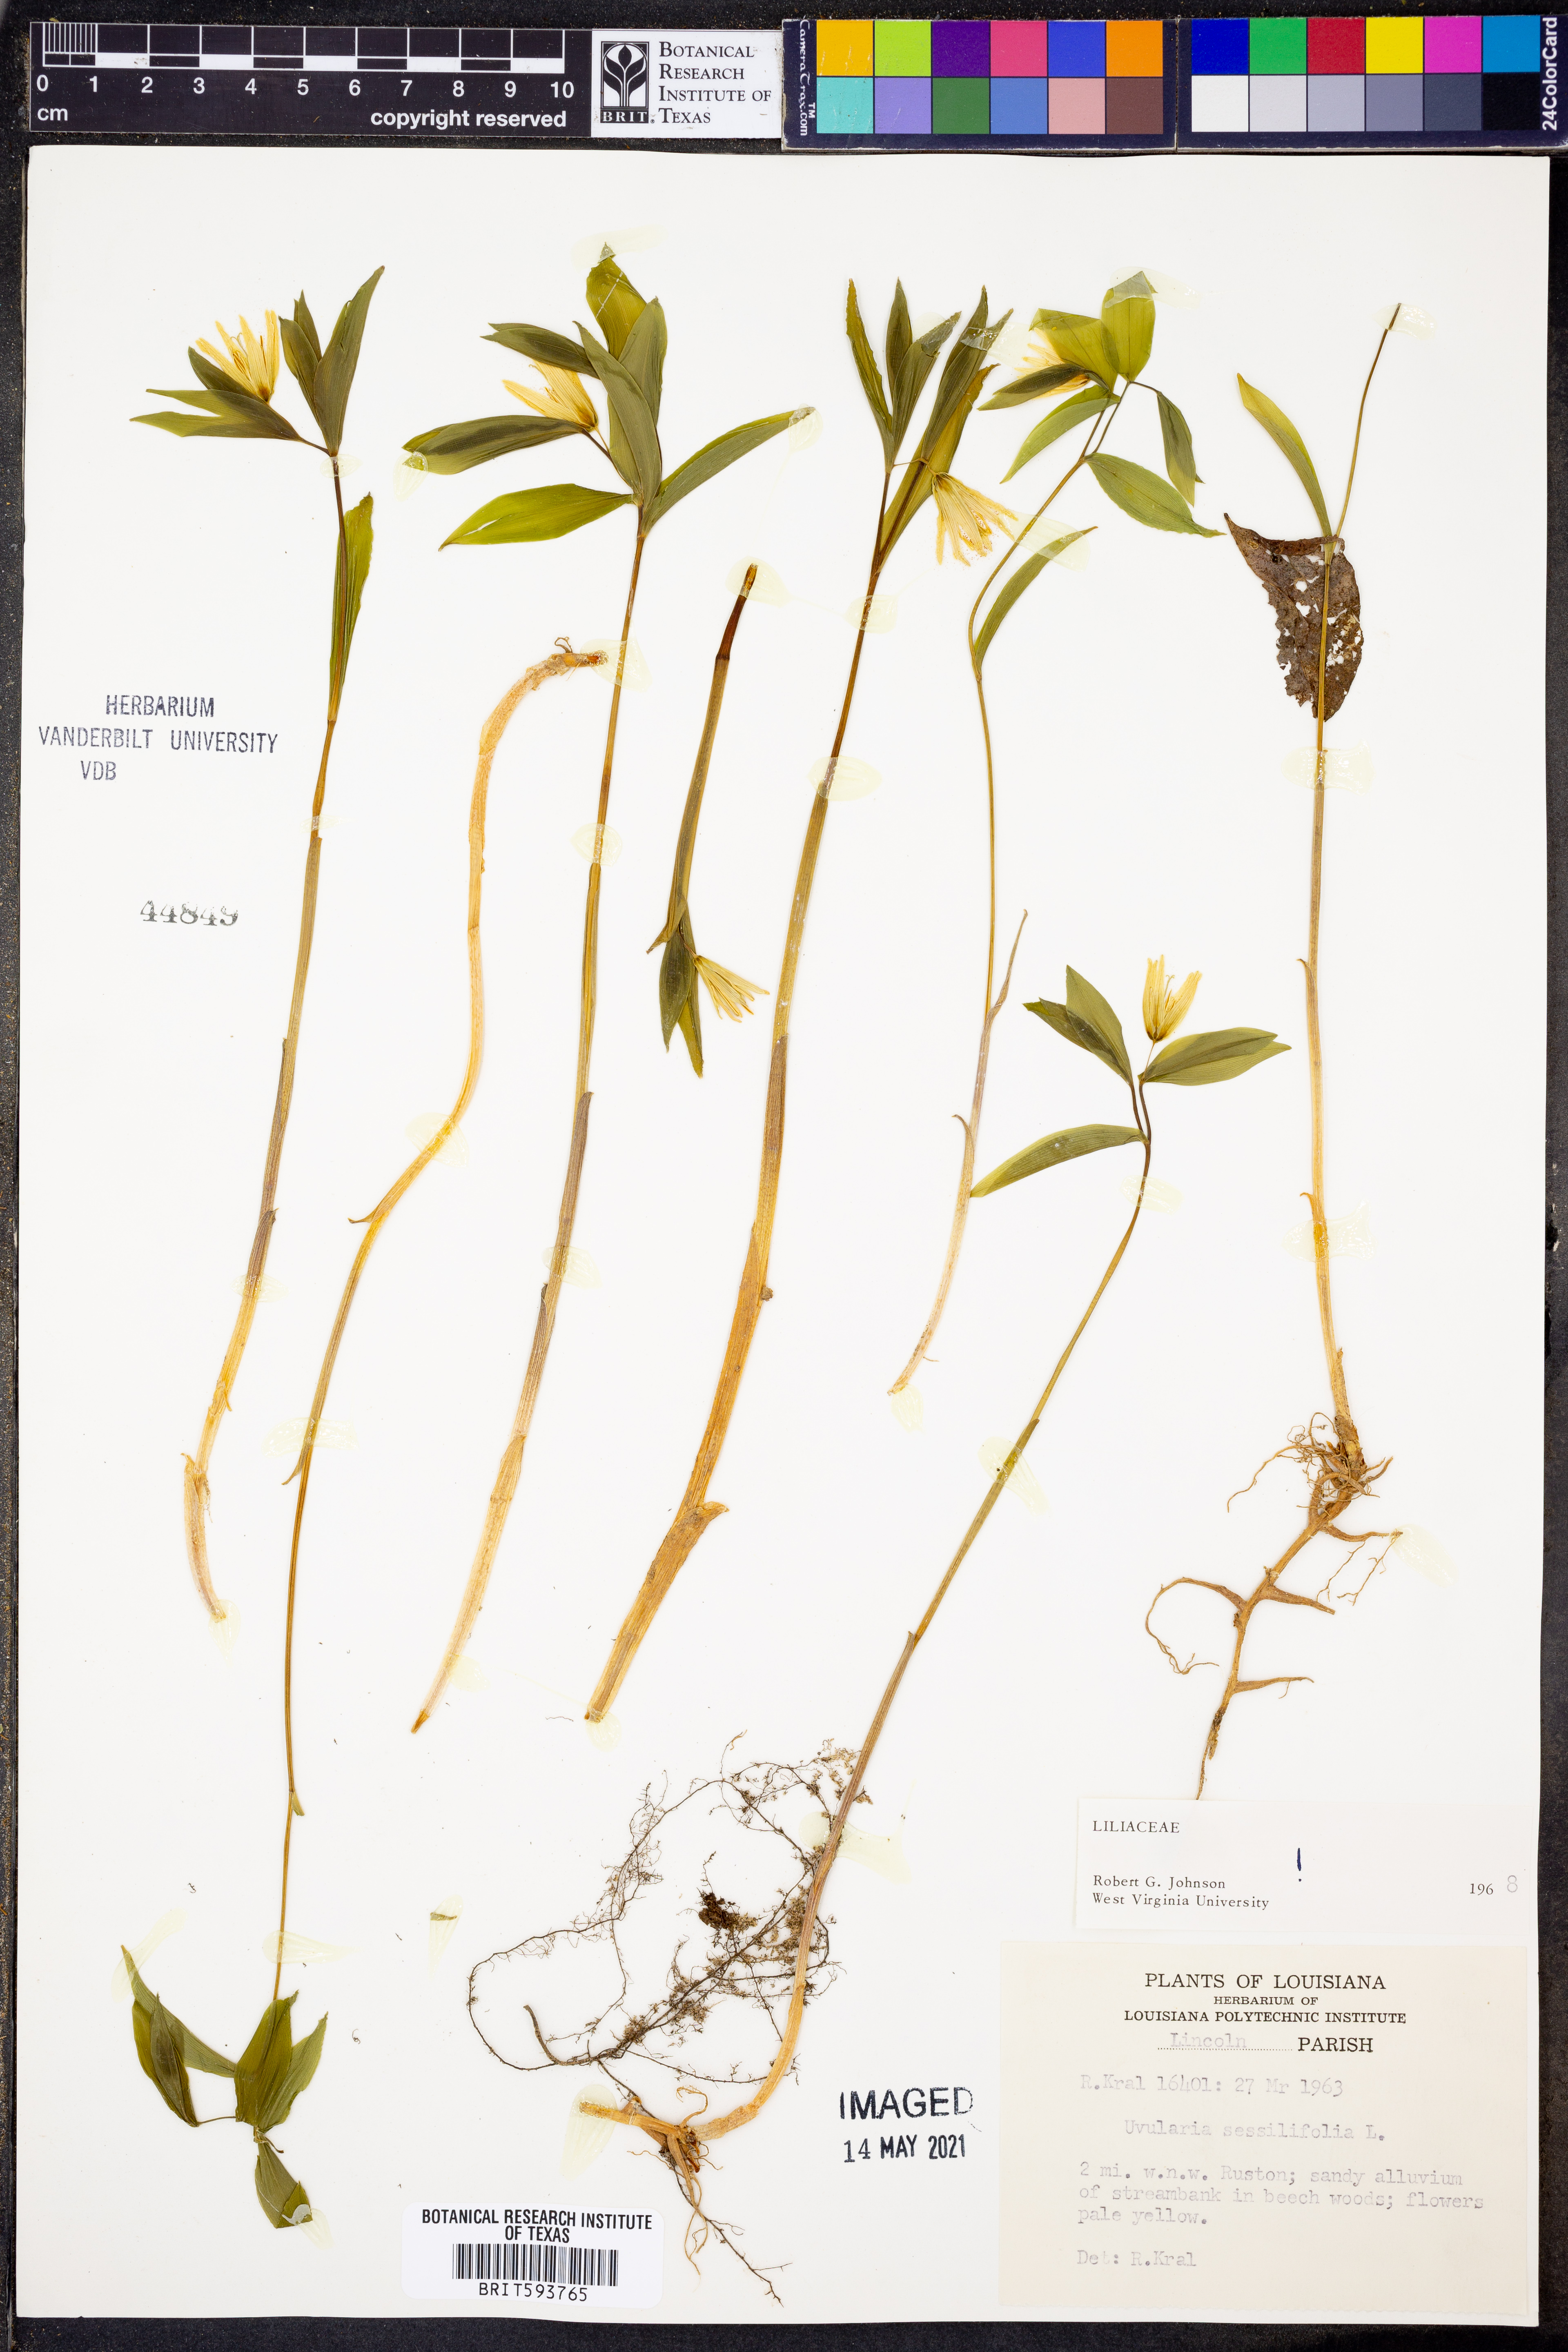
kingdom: Plantae
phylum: Tracheophyta
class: Liliopsida
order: Liliales
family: Colchicaceae
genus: Uvularia
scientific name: Uvularia sessilifolia
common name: Straw-lily
